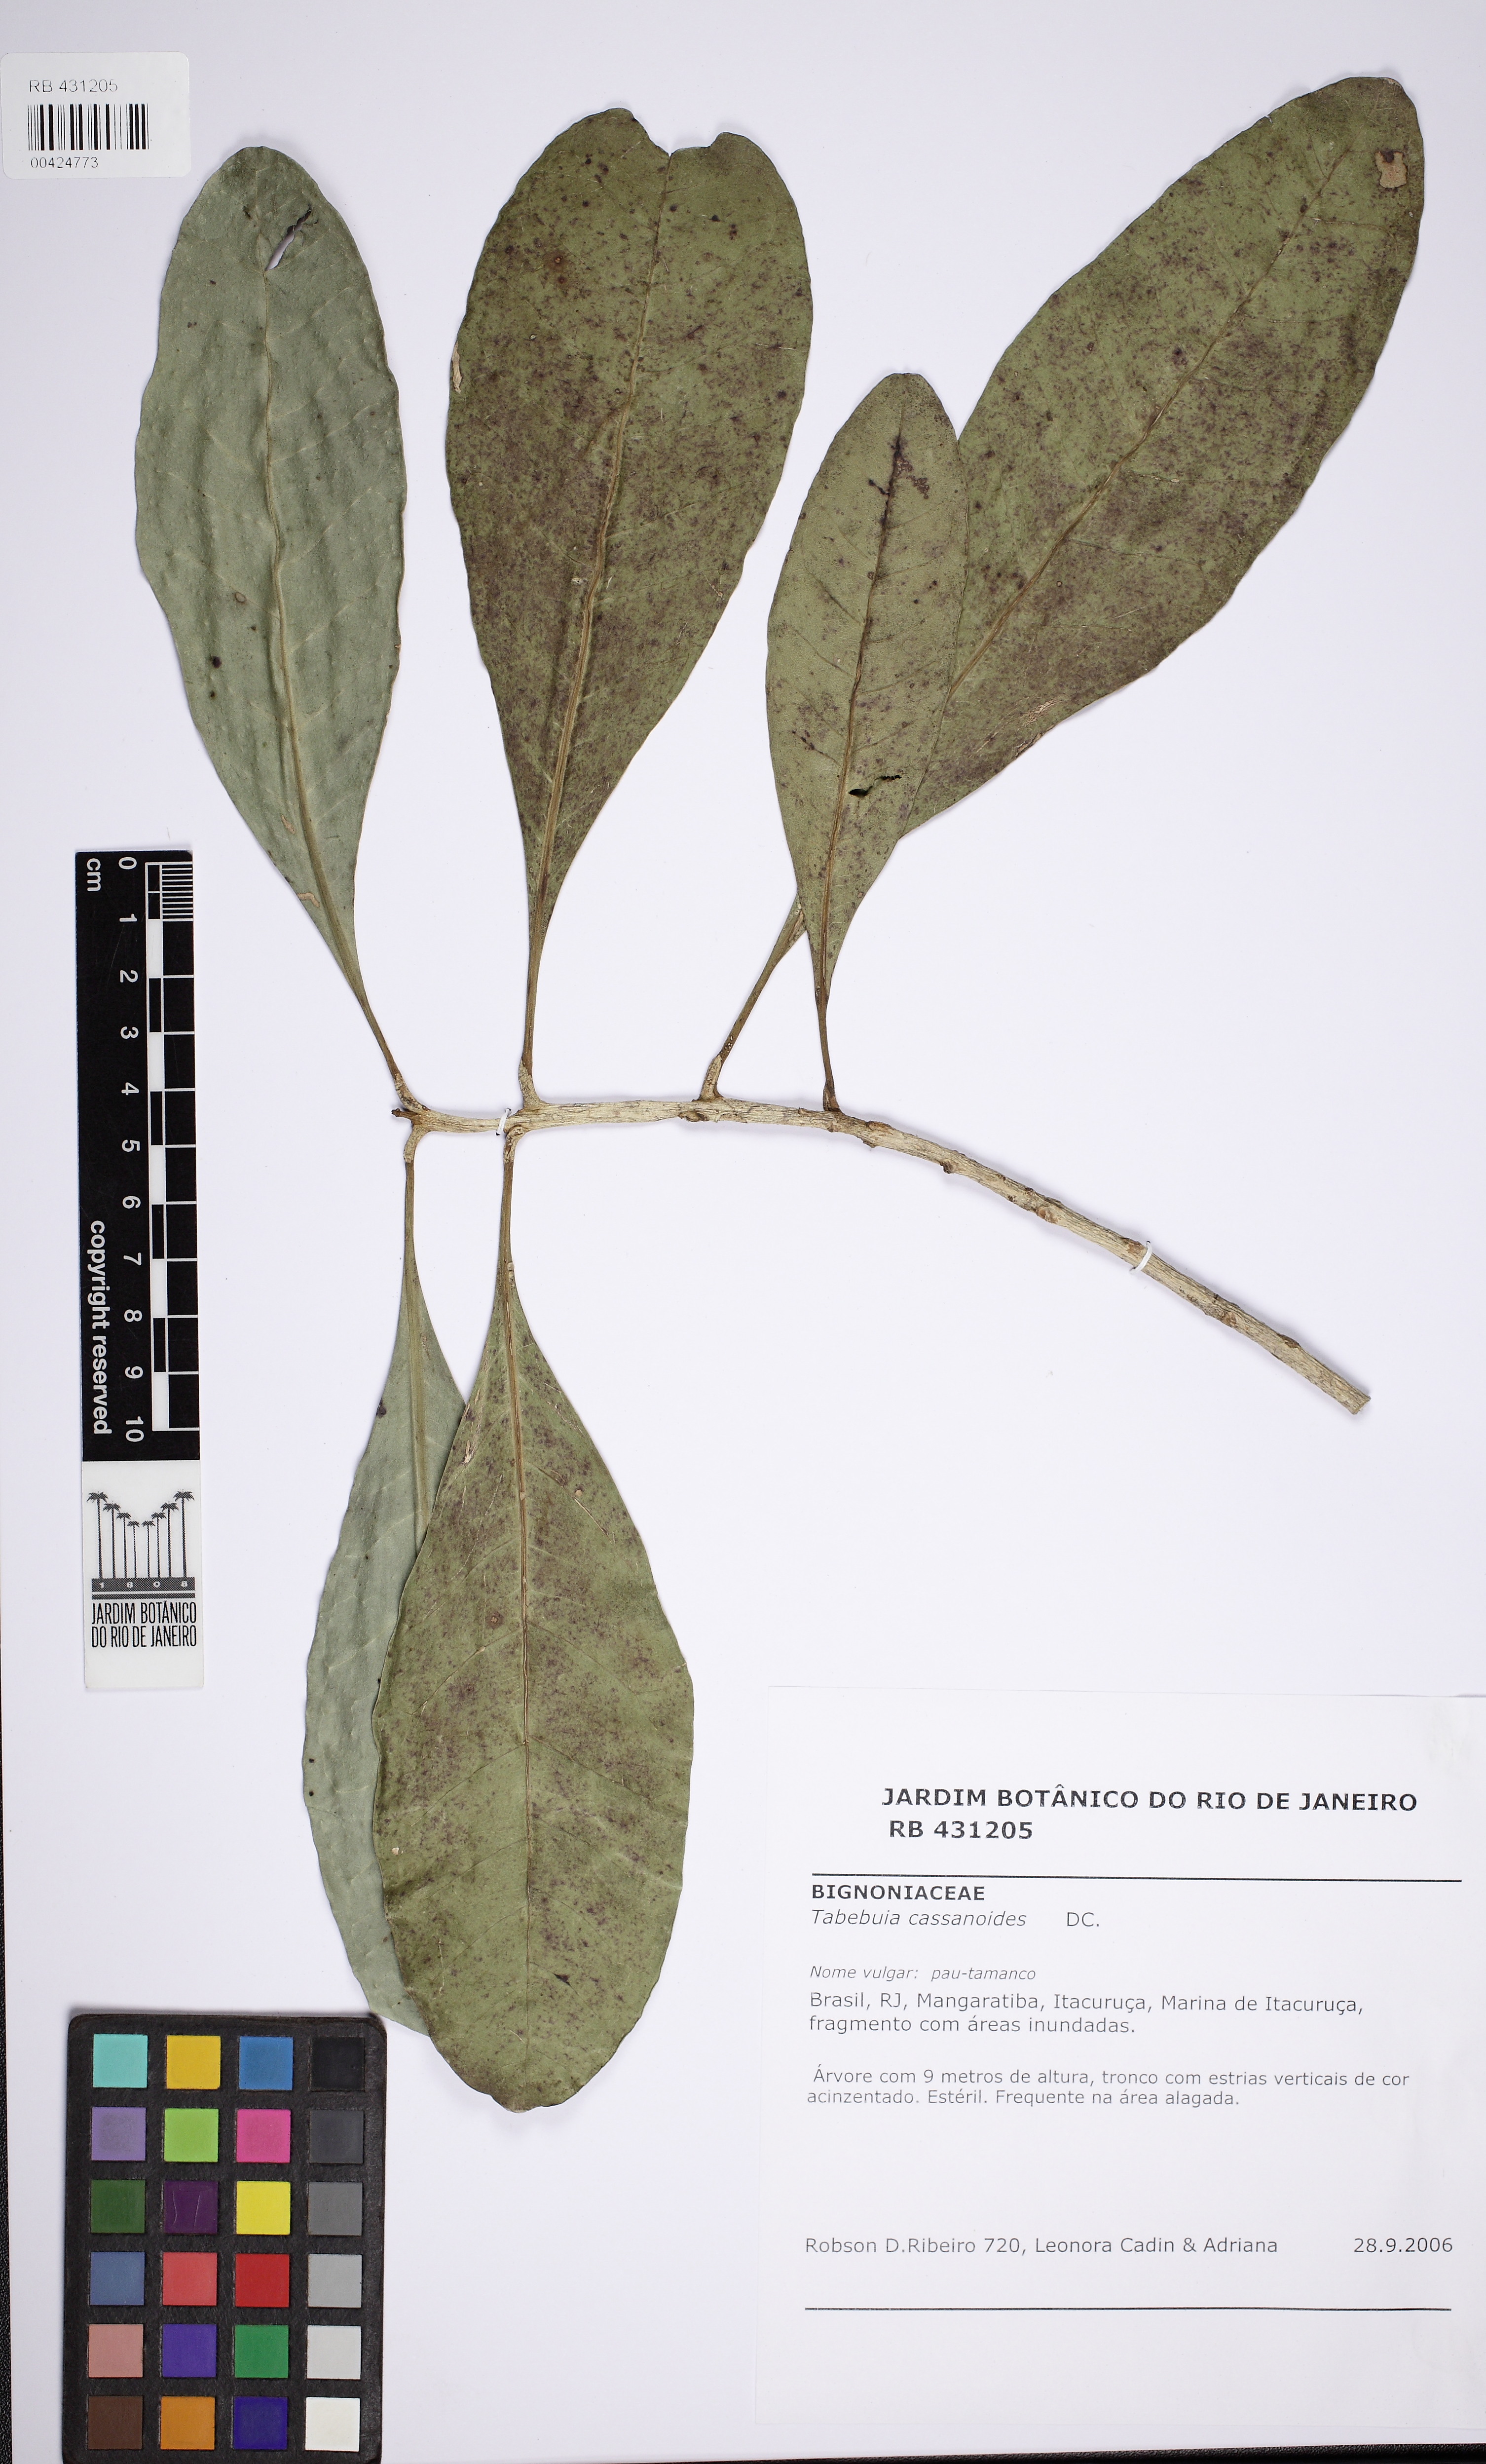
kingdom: Plantae
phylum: Tracheophyta
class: Magnoliopsida
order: Lamiales
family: Bignoniaceae
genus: Tabebuia
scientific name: Tabebuia cassinoides
